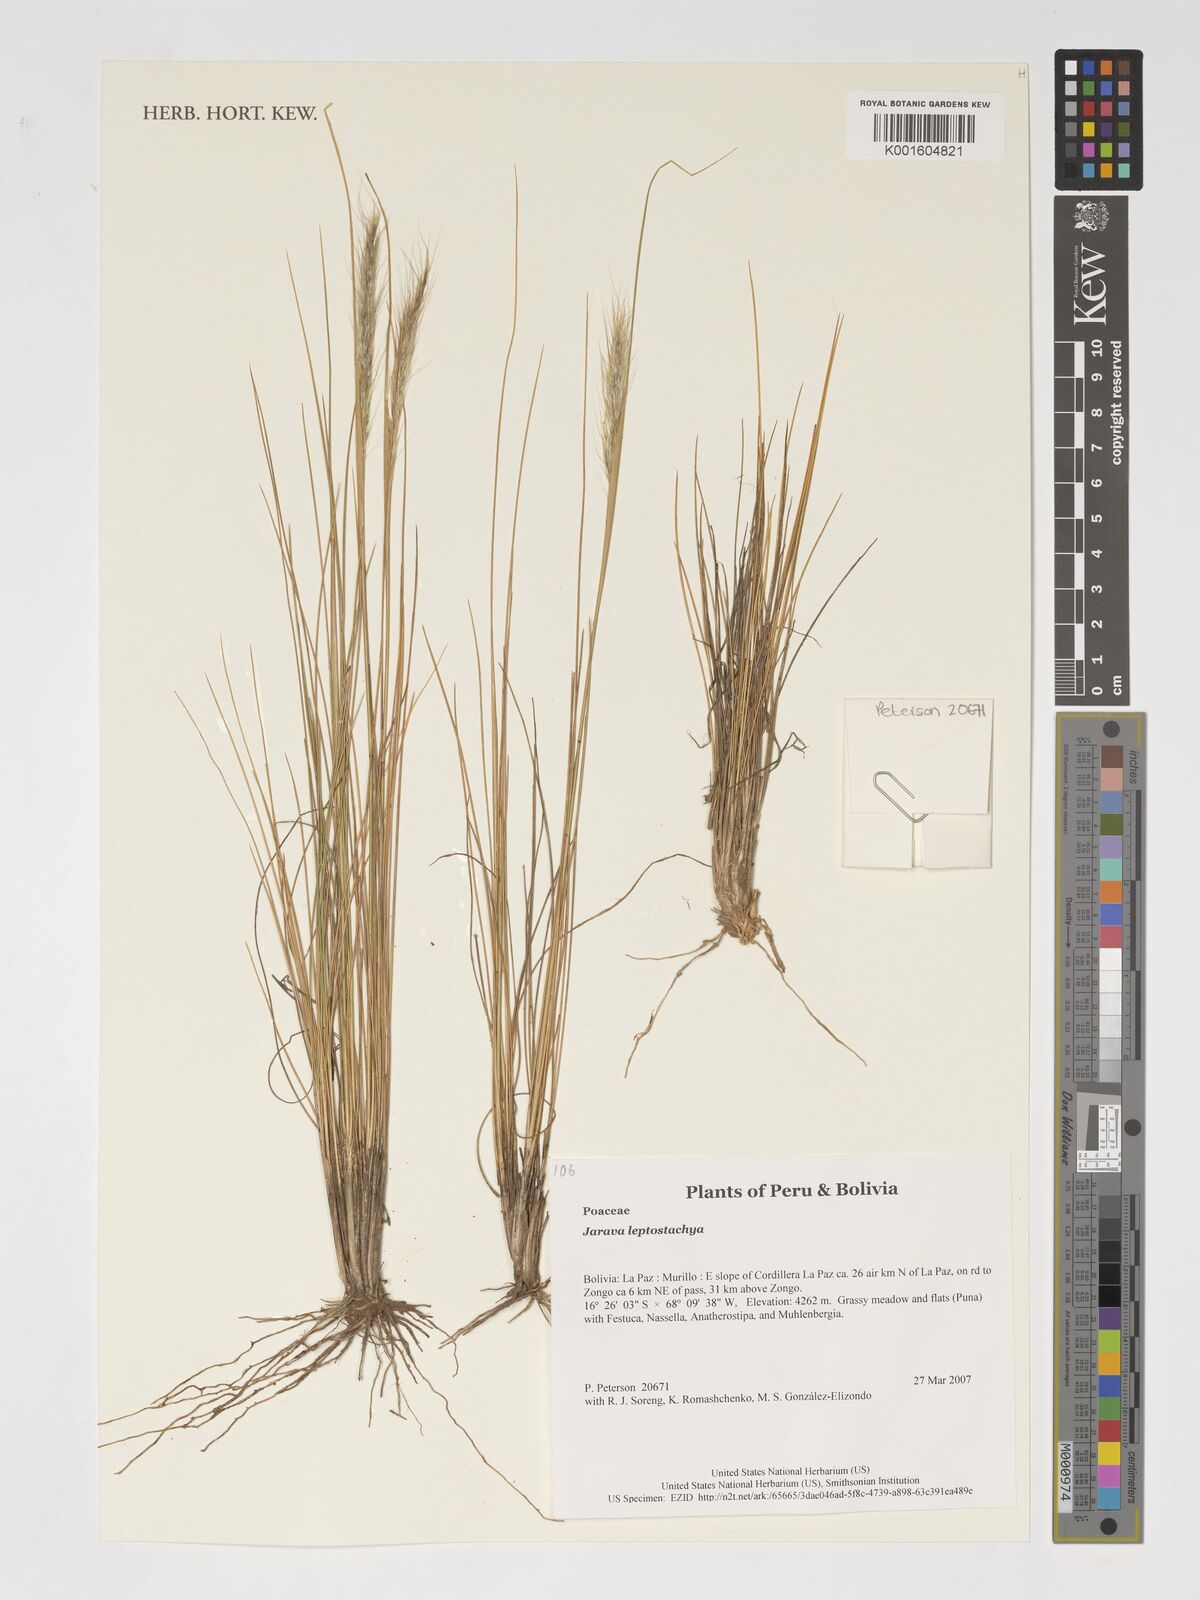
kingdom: Plantae
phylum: Tracheophyta
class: Liliopsida
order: Poales
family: Poaceae
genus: Jarava
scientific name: Jarava leptostachya
